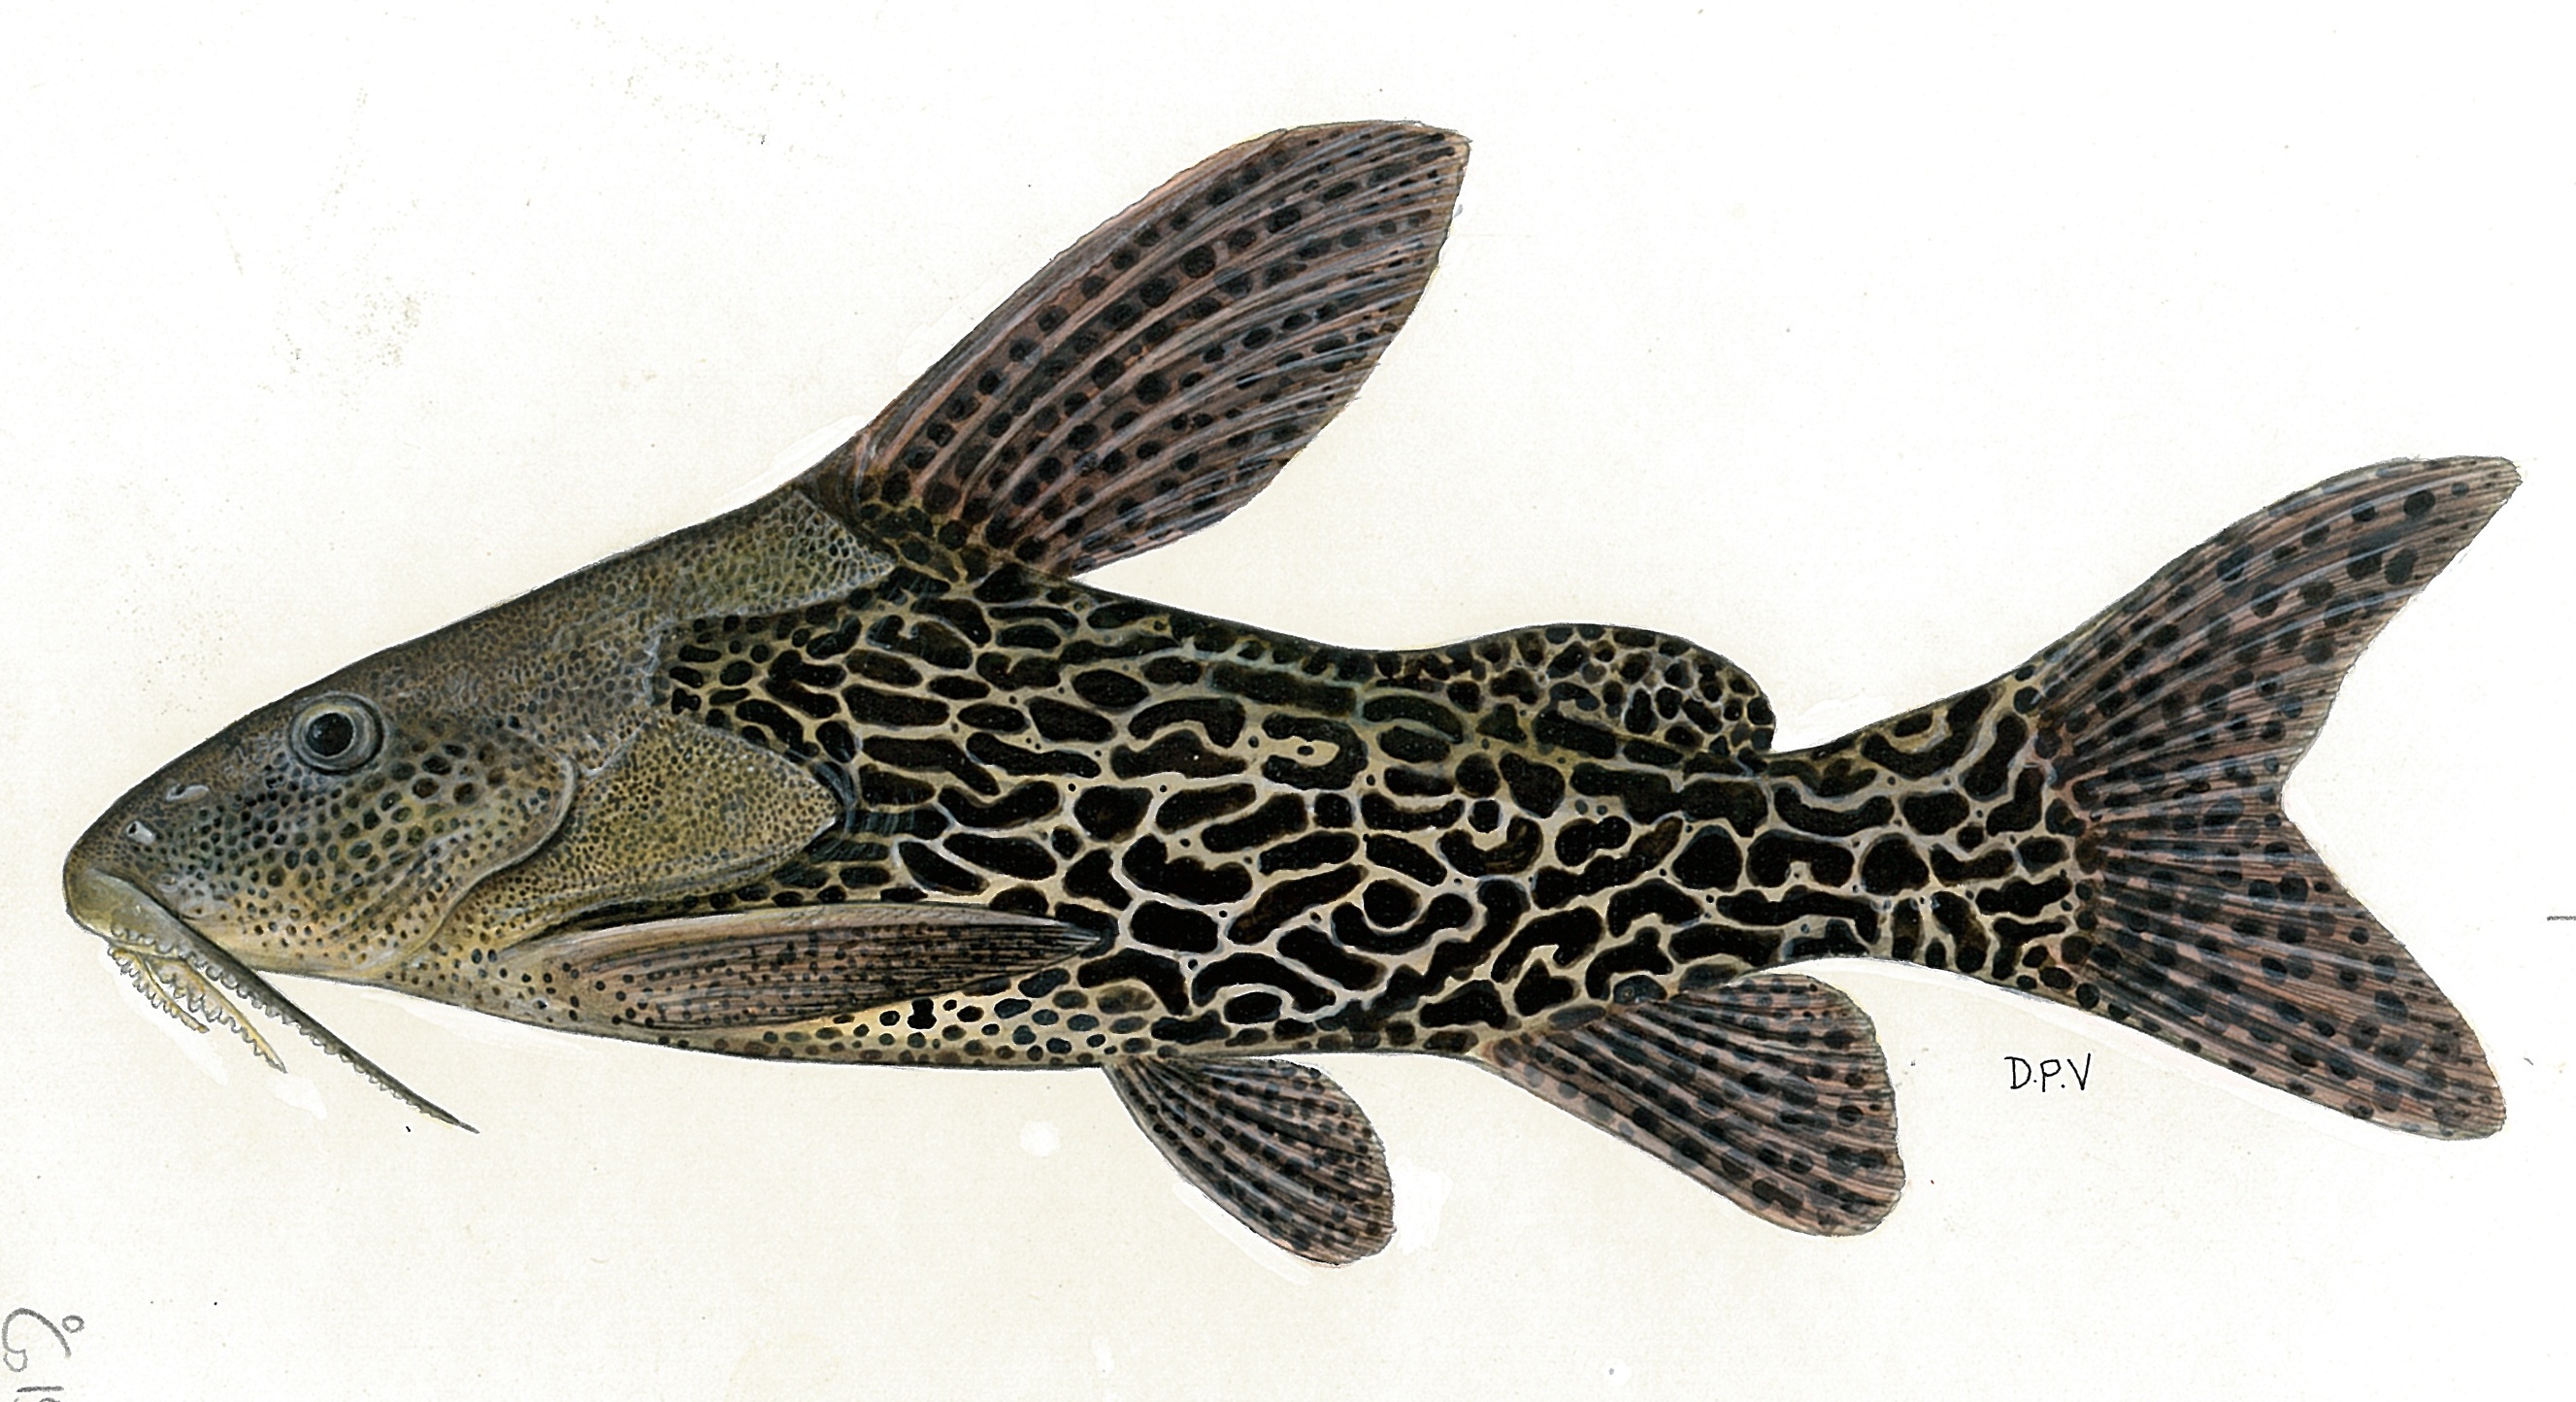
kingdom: Animalia
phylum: Chordata
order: Siluriformes
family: Mochokidae
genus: Synodontis
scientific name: Synodontis leopardinus
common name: Leopard squeaker
